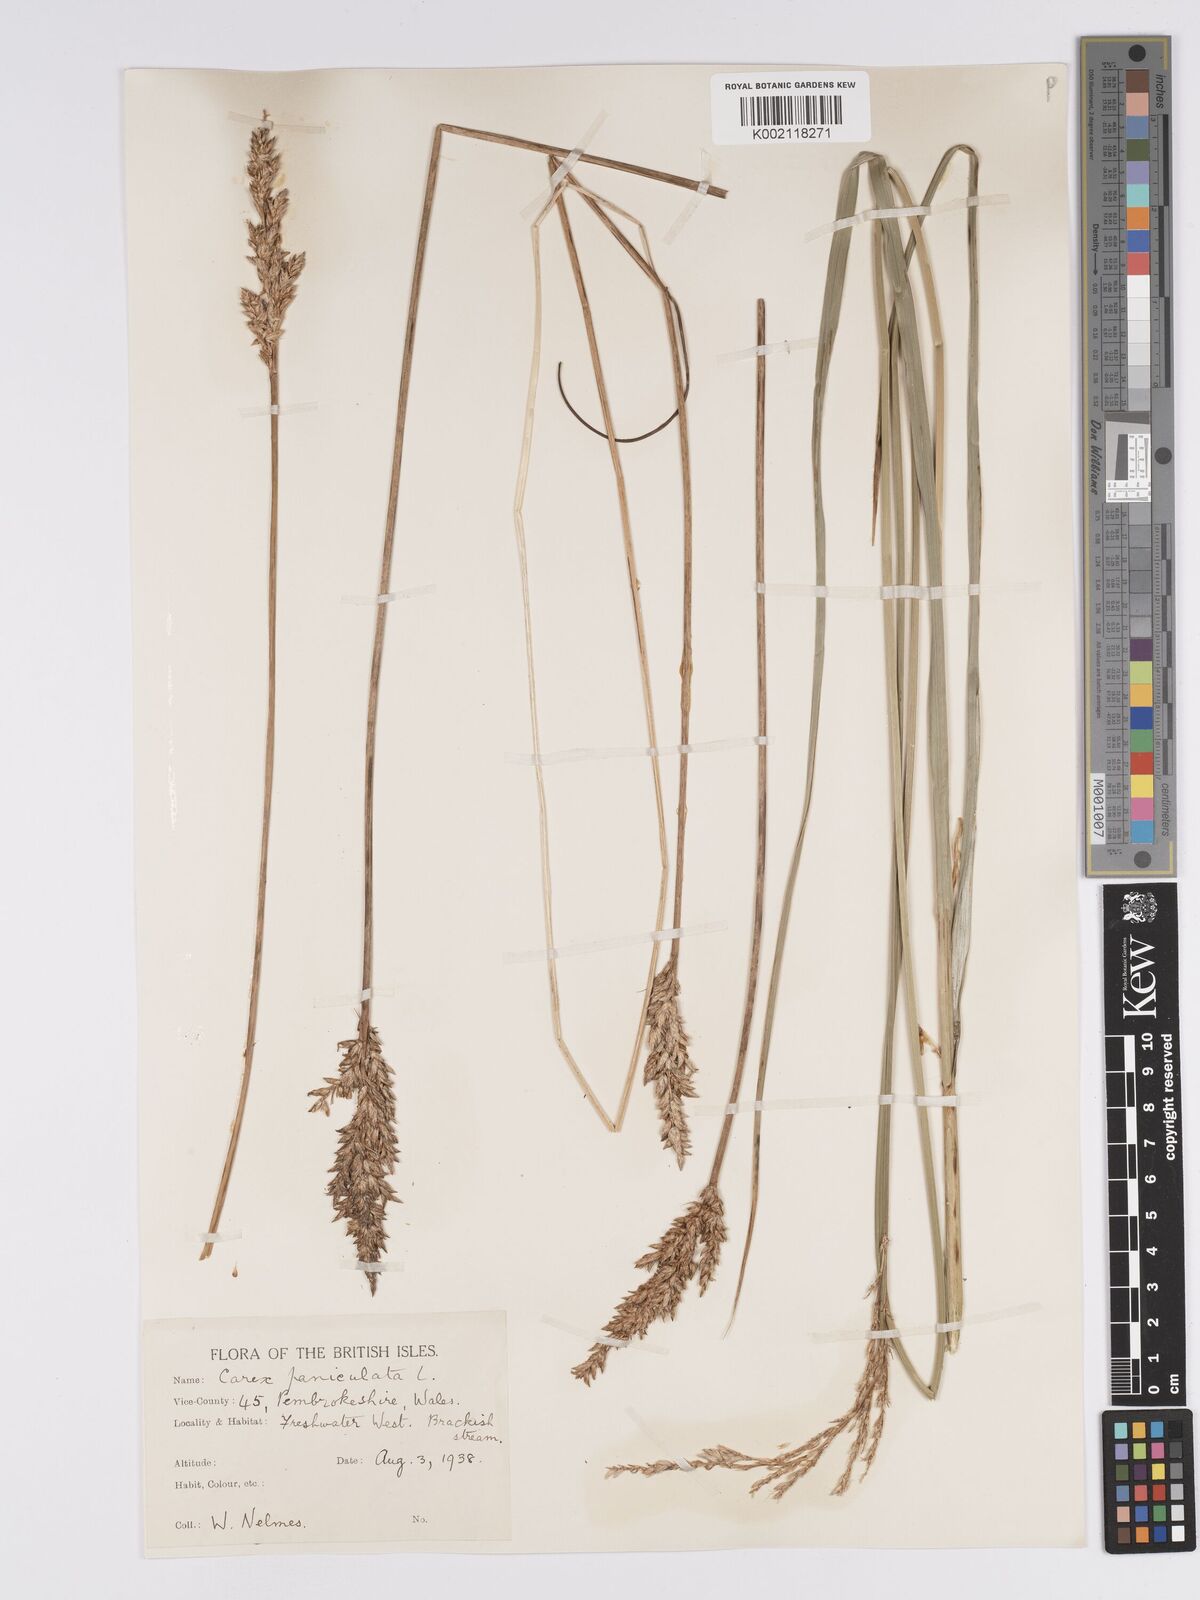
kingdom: Plantae
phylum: Tracheophyta
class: Liliopsida
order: Poales
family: Cyperaceae
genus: Carex
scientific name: Carex paniculata
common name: Greater tussock-sedge
